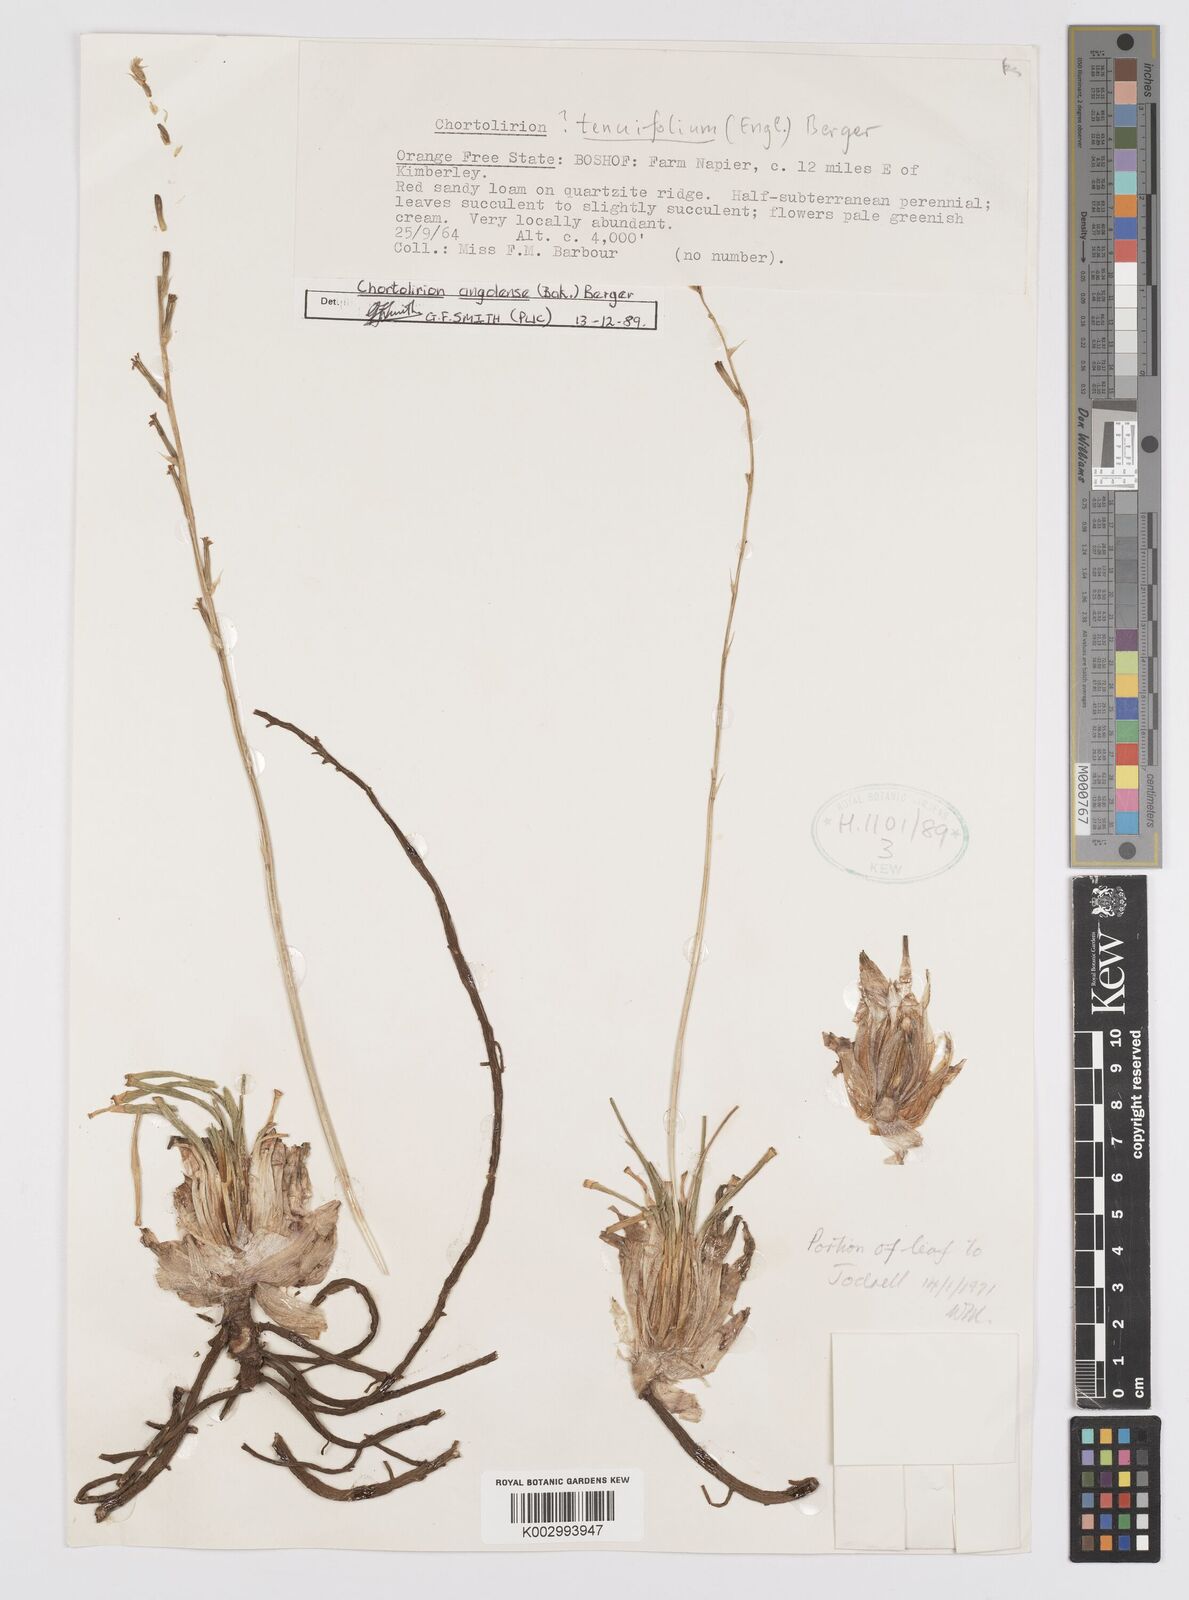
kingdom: Plantae
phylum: Tracheophyta
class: Liliopsida
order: Asparagales
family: Asphodelaceae
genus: Aloe
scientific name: Aloe welwitschii
